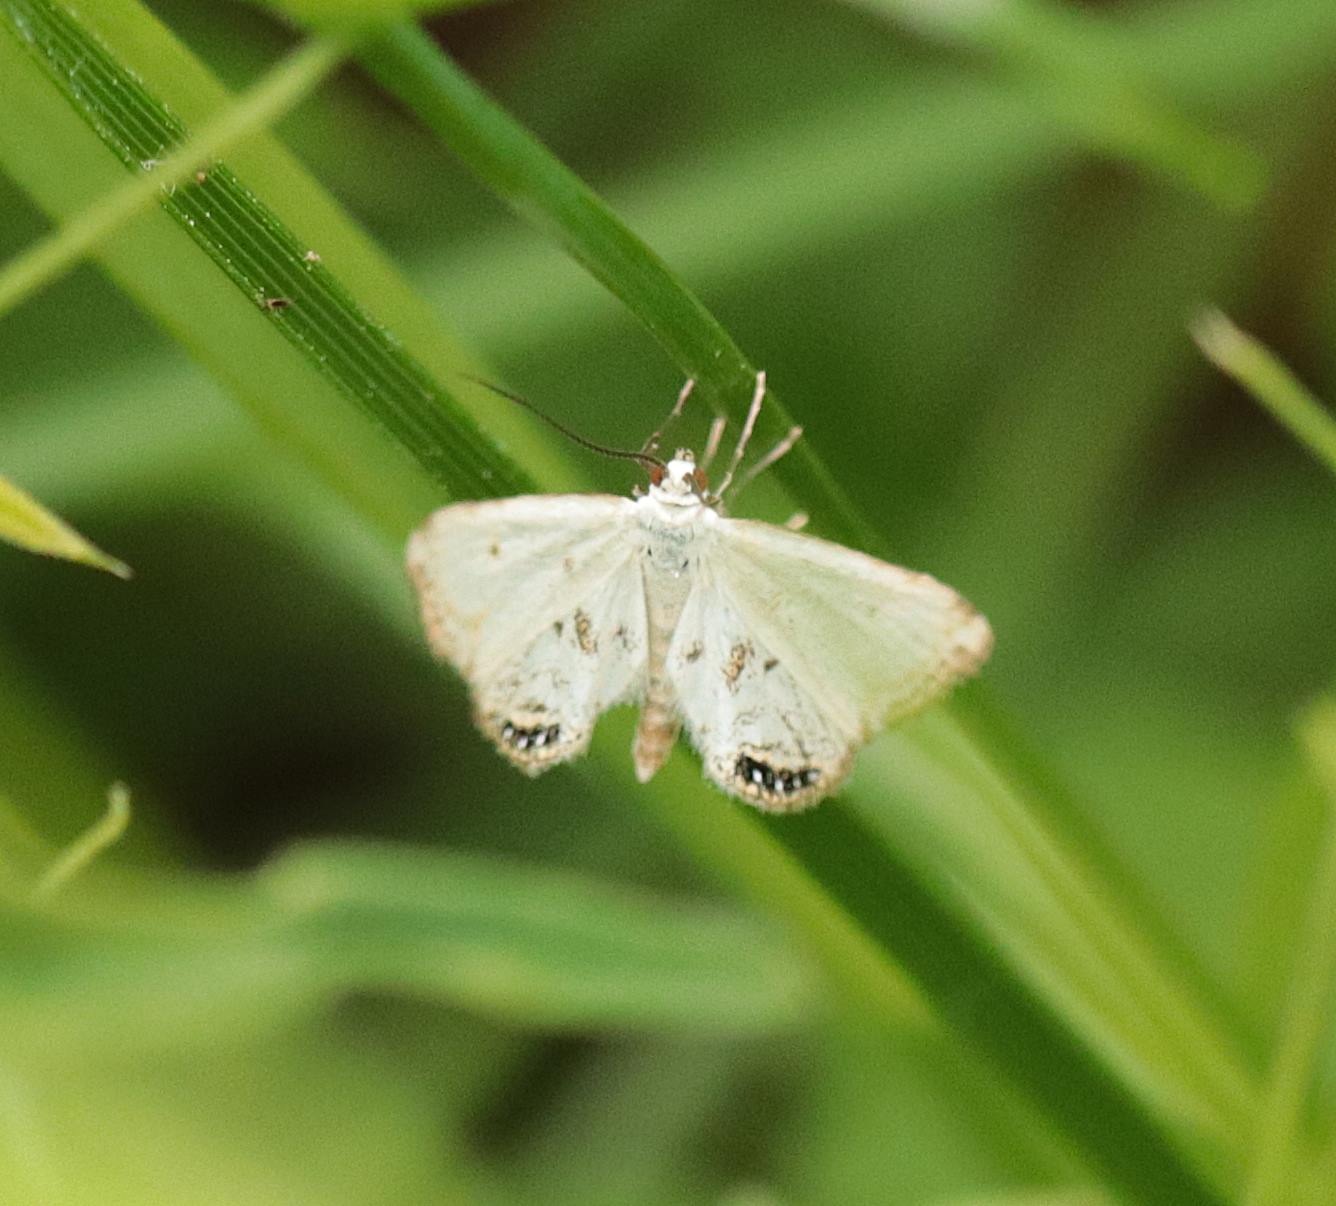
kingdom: Animalia
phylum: Arthropoda
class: Insecta
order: Lepidoptera
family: Crambidae
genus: Cataclysta
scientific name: Cataclysta lemnata
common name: Andemadhalvmøl
